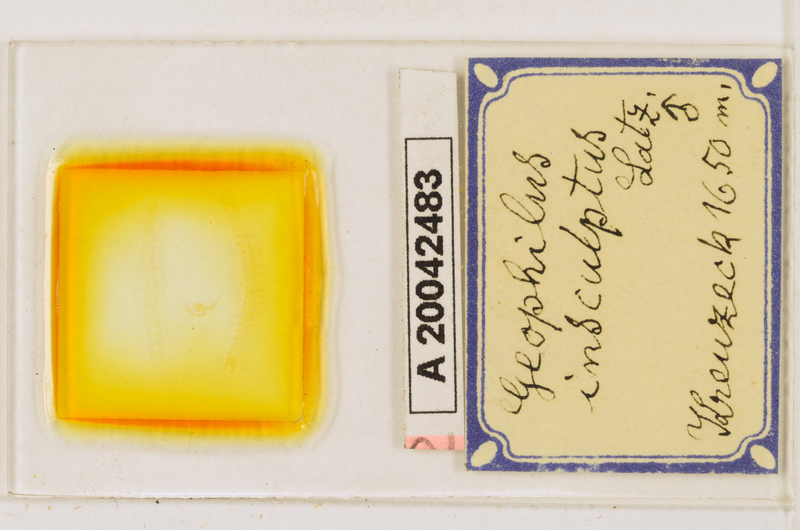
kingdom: Animalia
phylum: Arthropoda
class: Chilopoda
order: Geophilomorpha
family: Geophilidae
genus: Geophilus
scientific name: Geophilus insculptus
